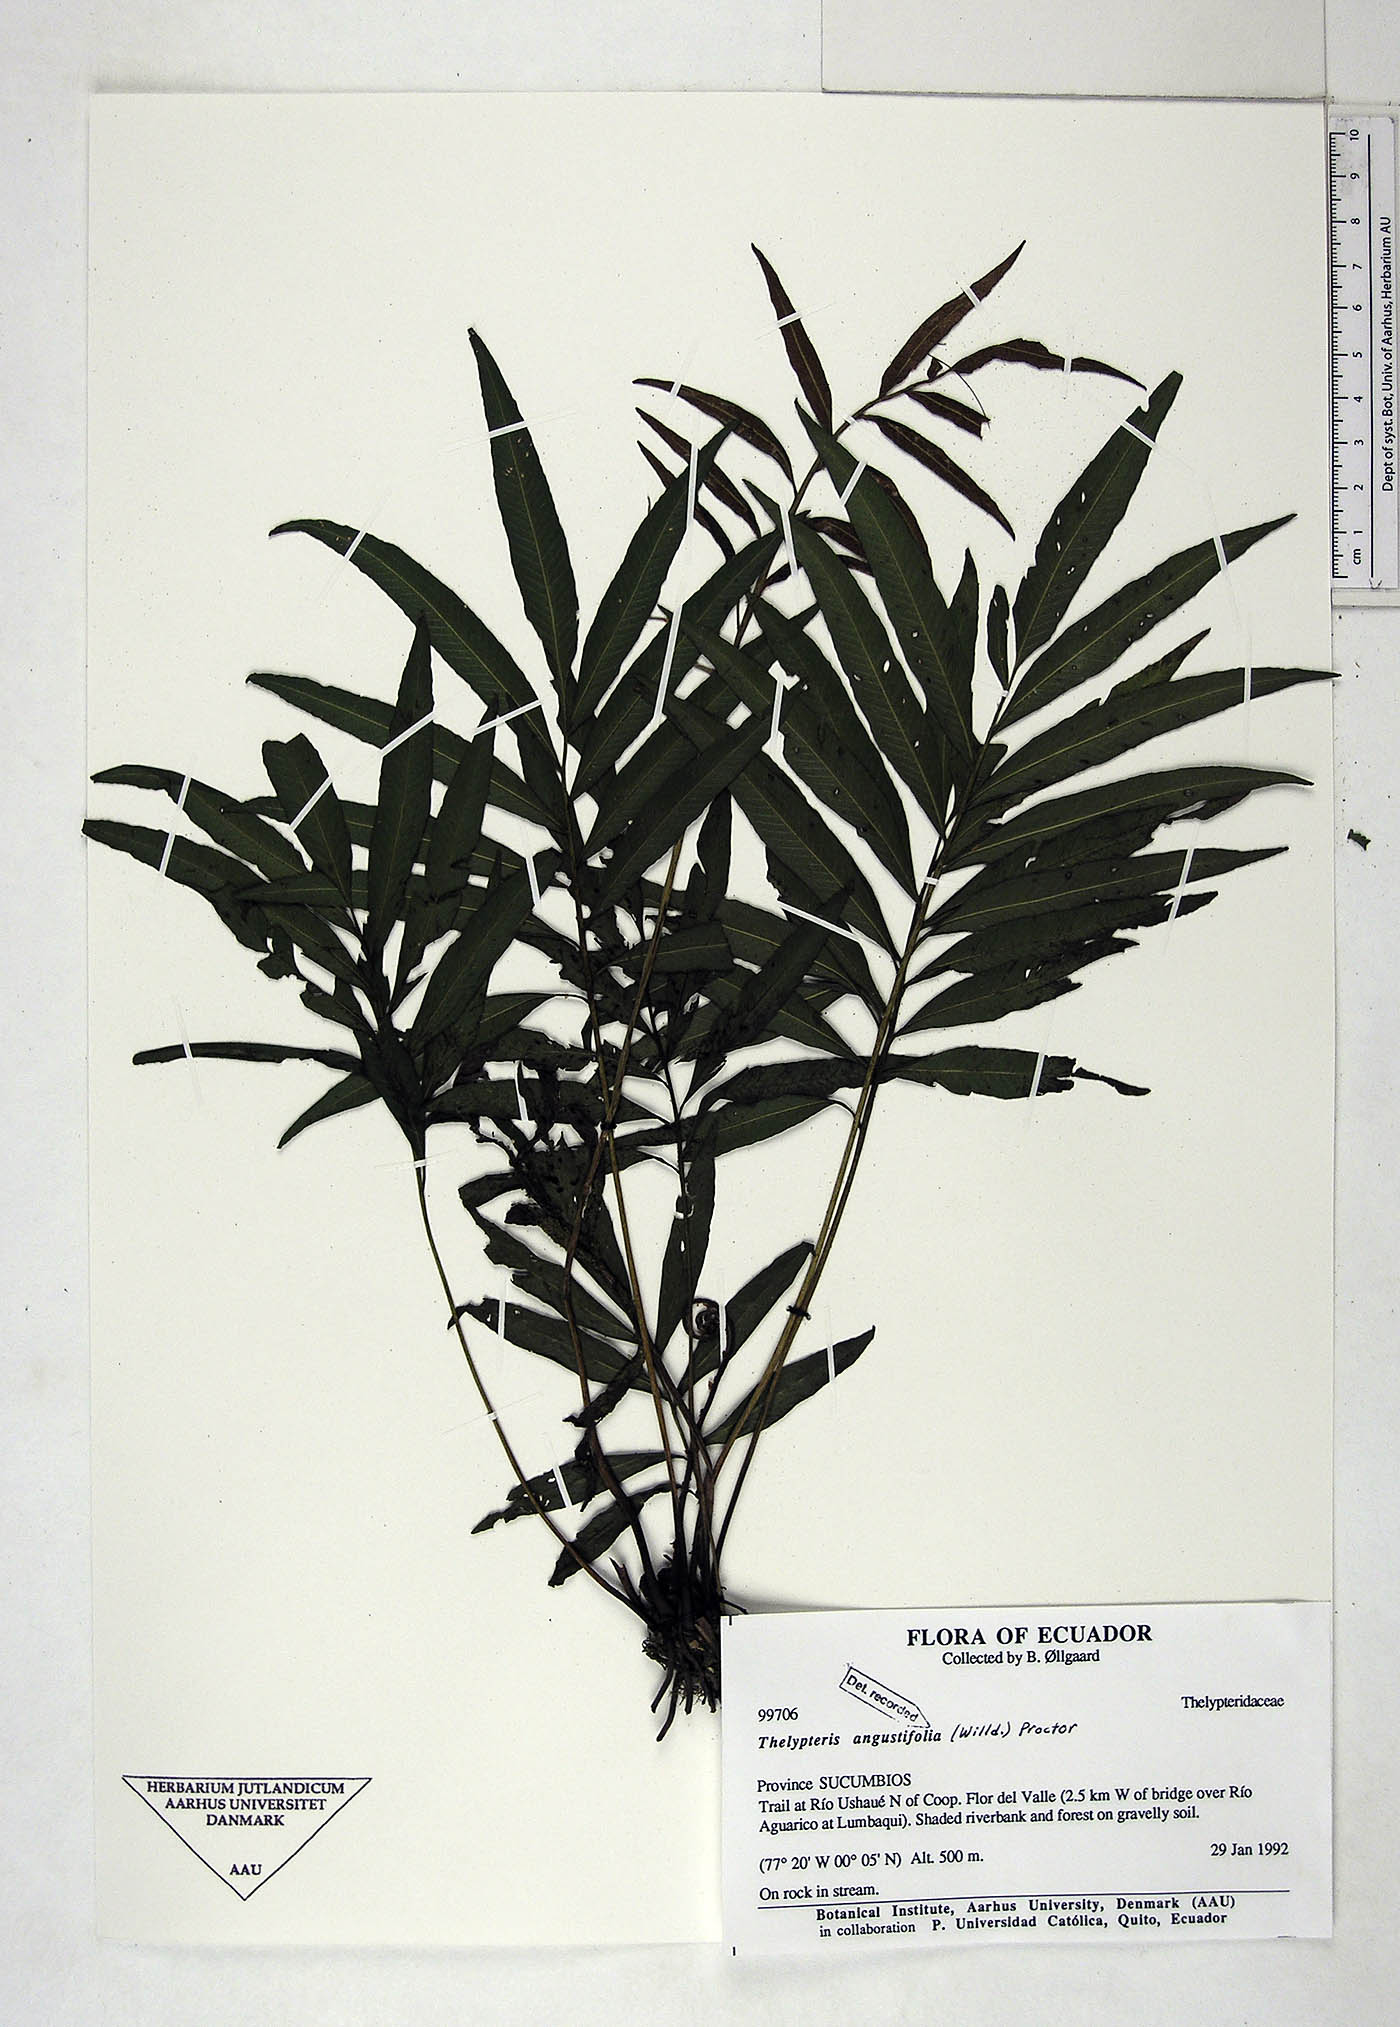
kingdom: Plantae
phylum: Tracheophyta
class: Polypodiopsida
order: Polypodiales
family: Thelypteridaceae
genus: Meniscium
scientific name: Meniscium angustifolium
